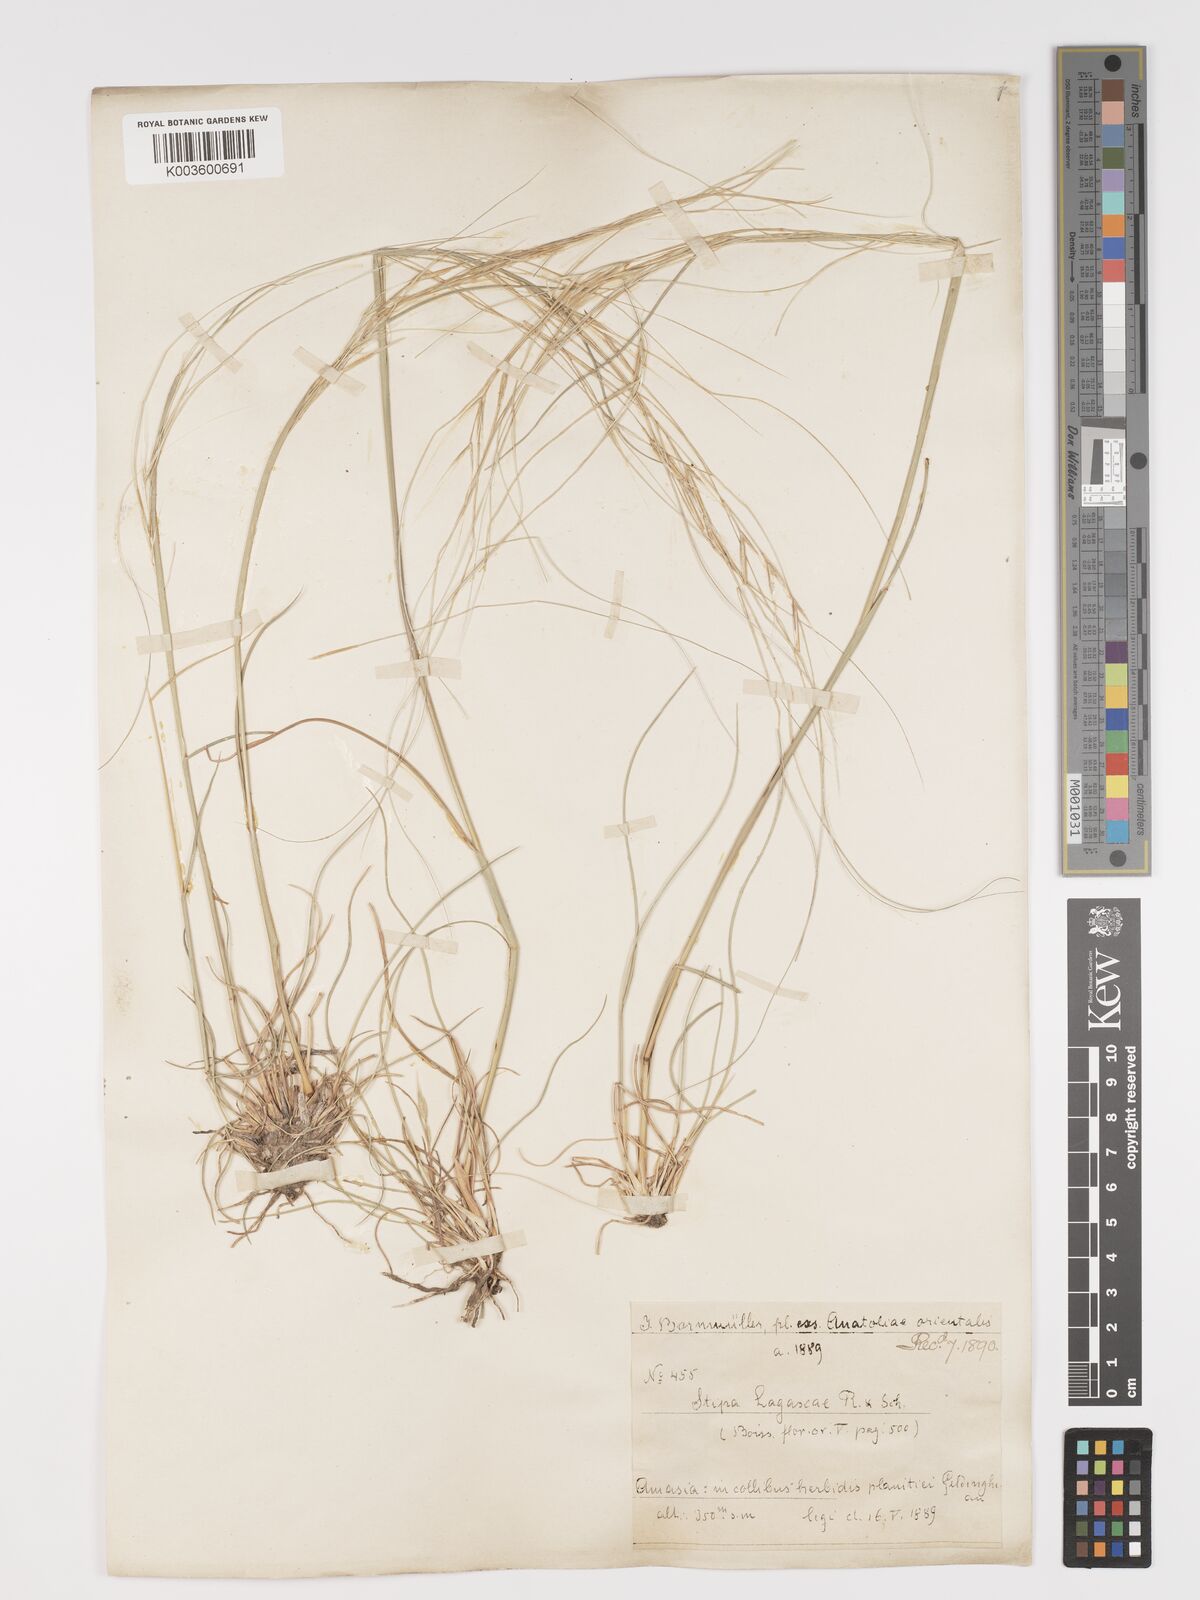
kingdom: Plantae
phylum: Tracheophyta
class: Liliopsida
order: Poales
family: Poaceae
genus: Stipa
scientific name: Stipa holosericea
